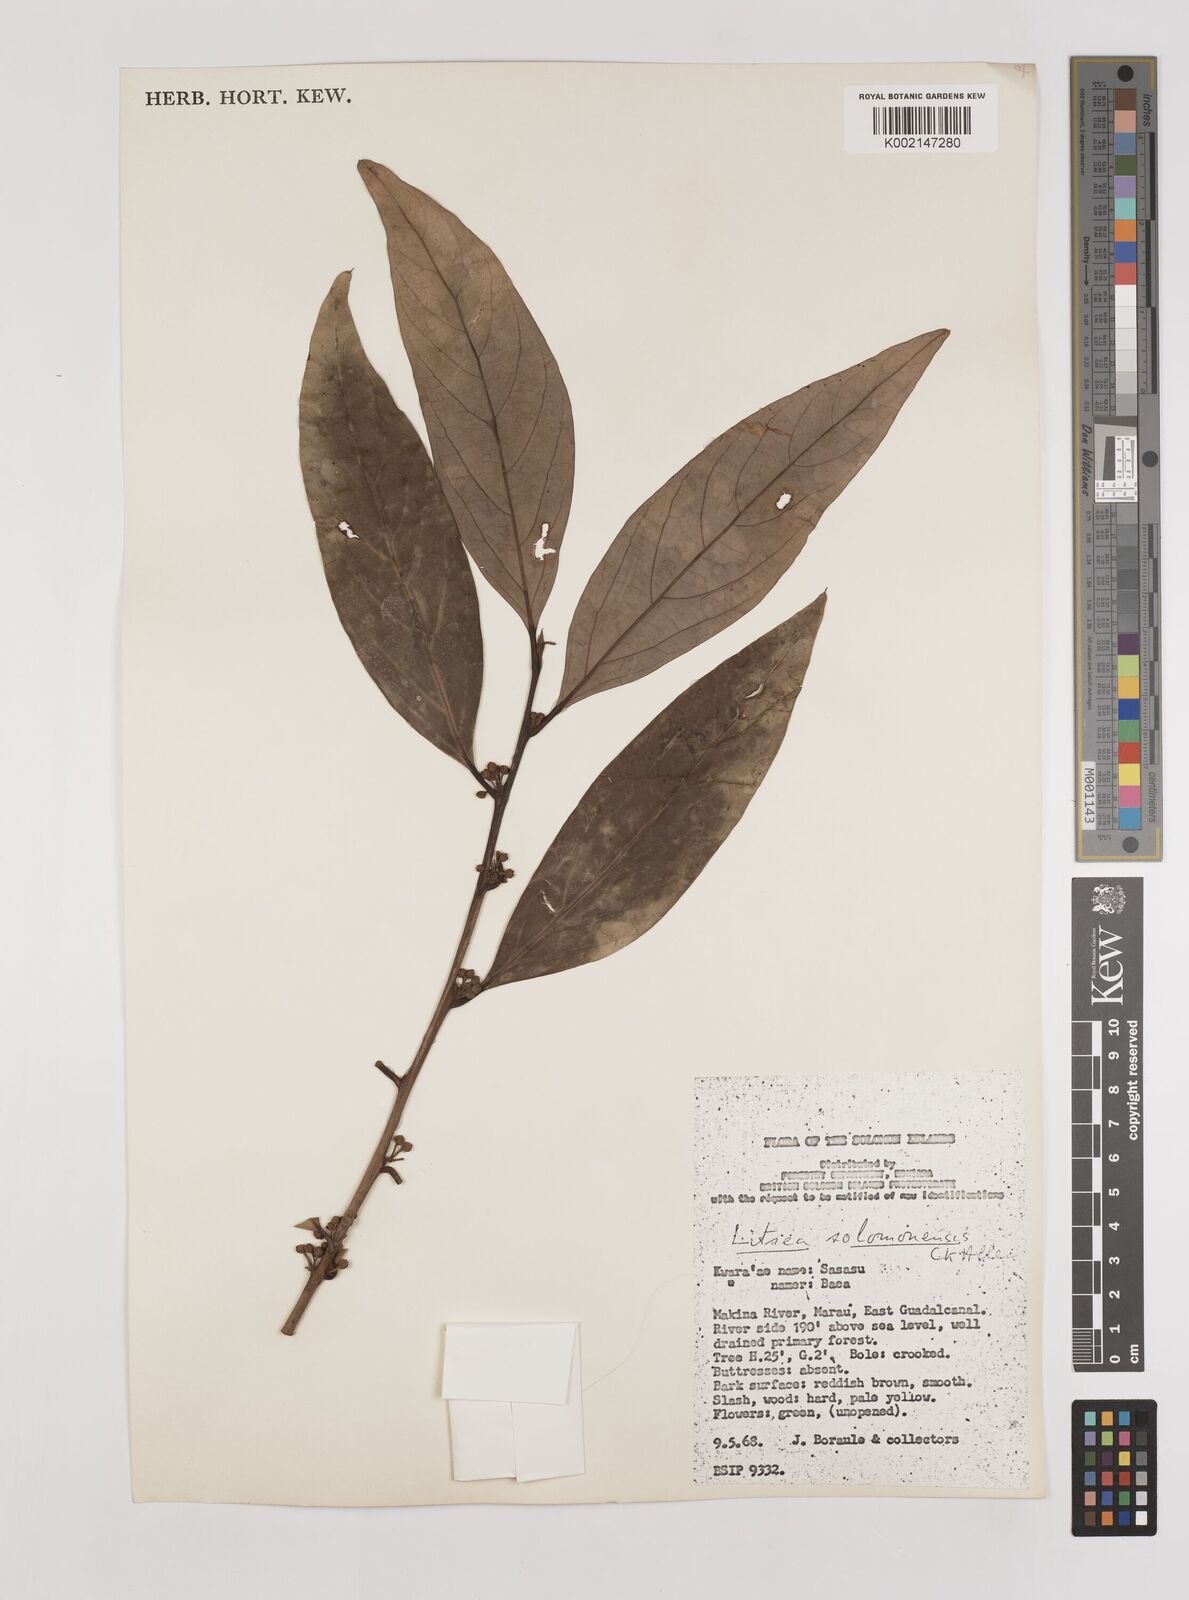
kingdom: Plantae
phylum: Tracheophyta
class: Magnoliopsida
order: Laurales
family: Lauraceae
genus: Litsea
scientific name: Litsea timoriana
